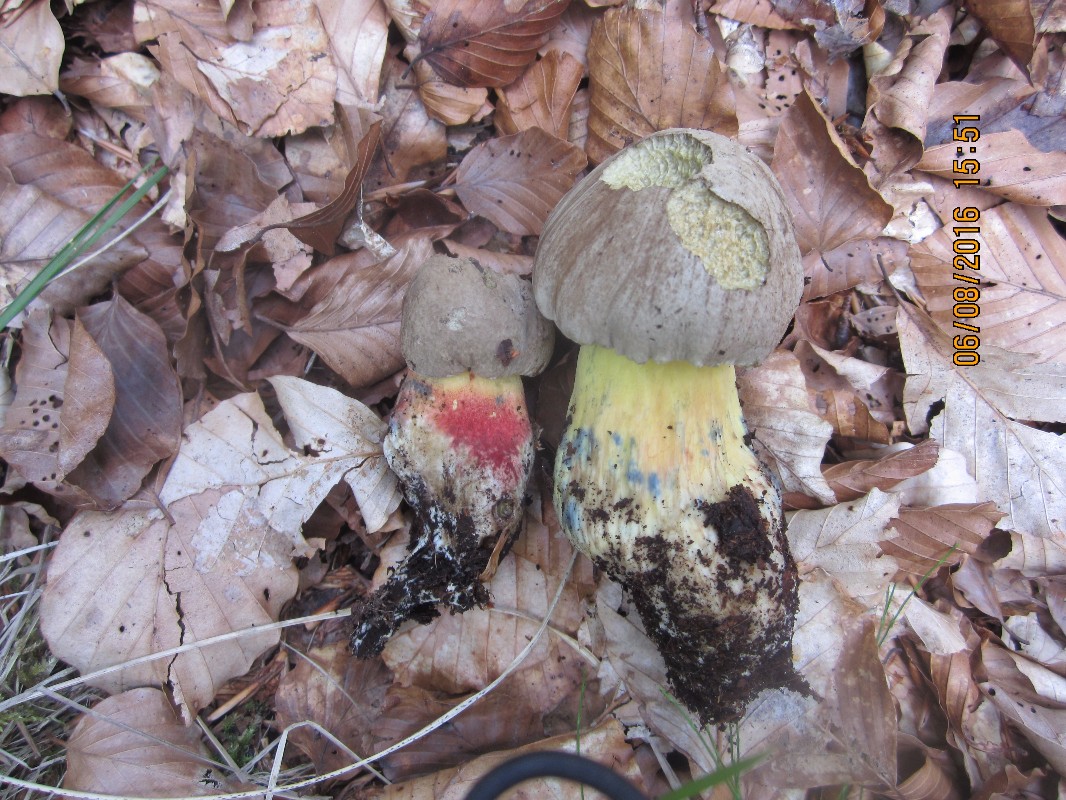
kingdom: Fungi
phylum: Basidiomycota
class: Agaricomycetes
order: Boletales
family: Boletaceae
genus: Caloboletus
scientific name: Caloboletus calopus
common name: skønfodet rørhat
